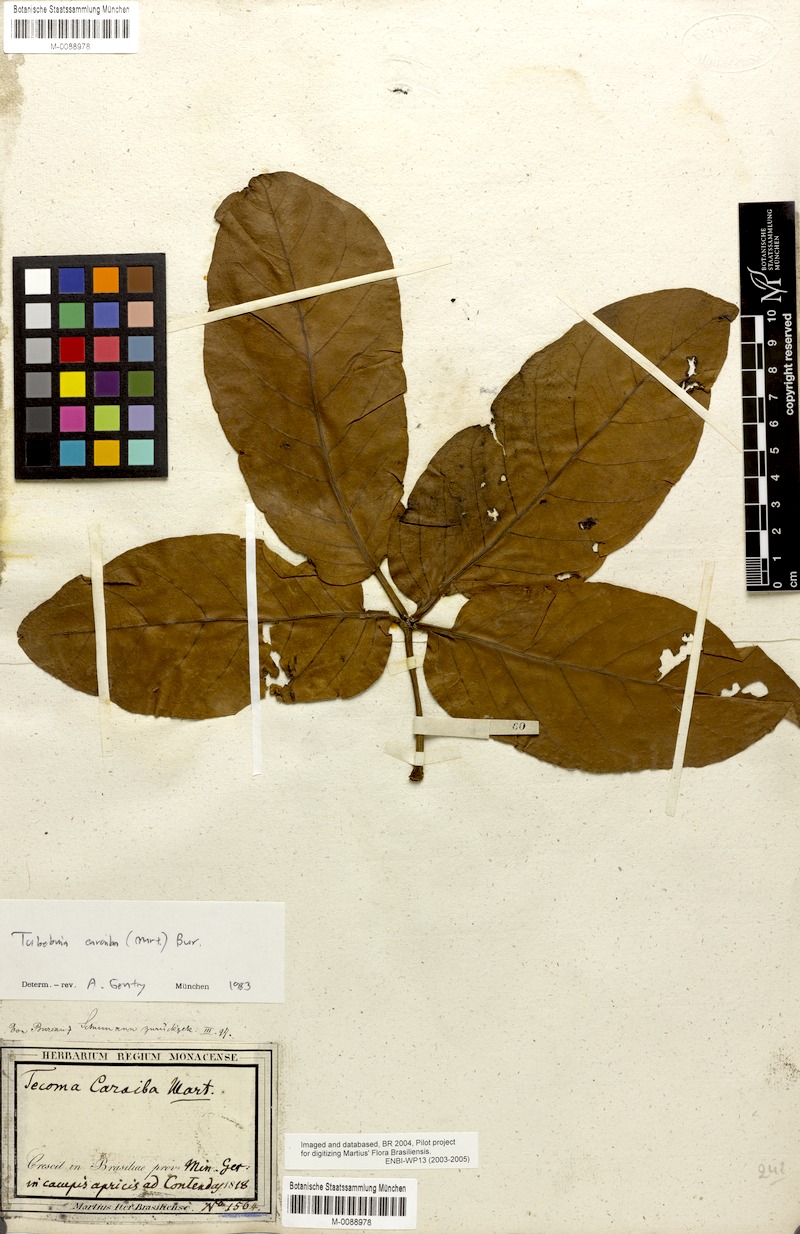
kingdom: Plantae
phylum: Tracheophyta
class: Magnoliopsida
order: Lamiales
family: Bignoniaceae
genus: Tabebuia
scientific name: Tabebuia aurea
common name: Caribbean trumpet-tree
